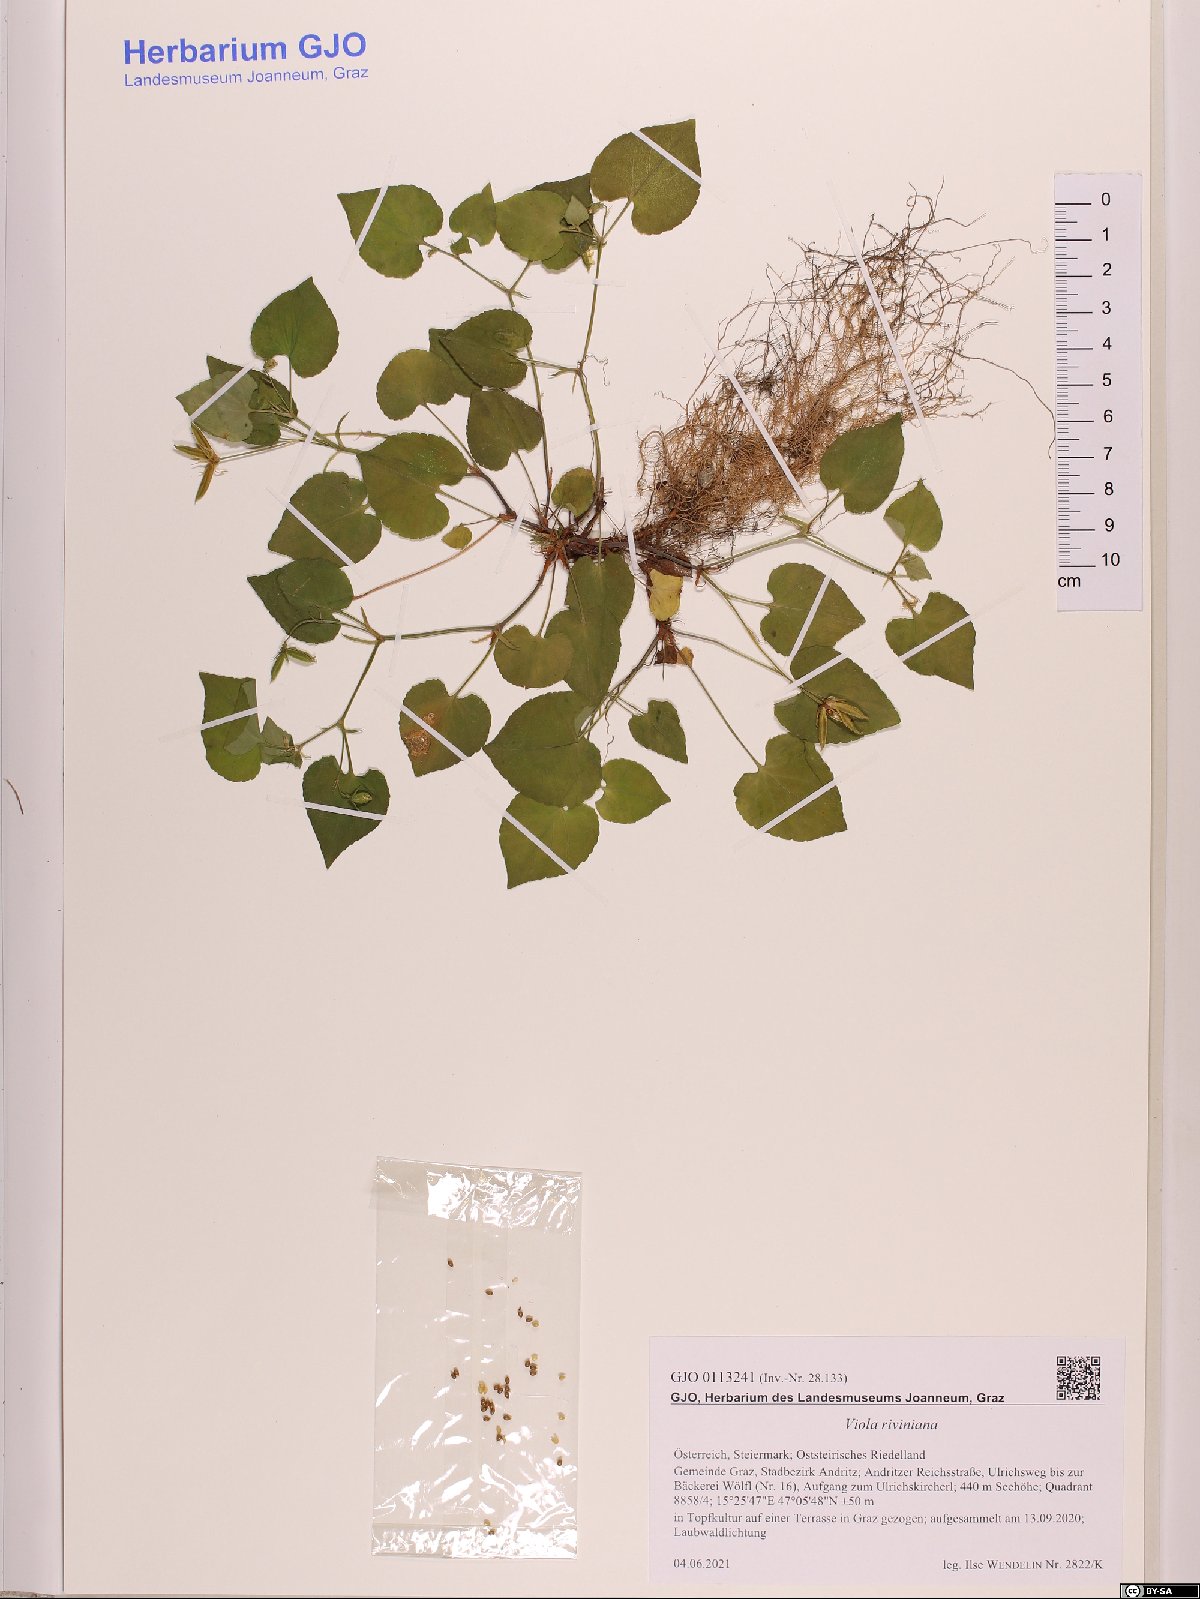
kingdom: Plantae
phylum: Tracheophyta
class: Magnoliopsida
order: Malpighiales
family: Violaceae
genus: Viola
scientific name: Viola riviniana
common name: Common dog-violet
